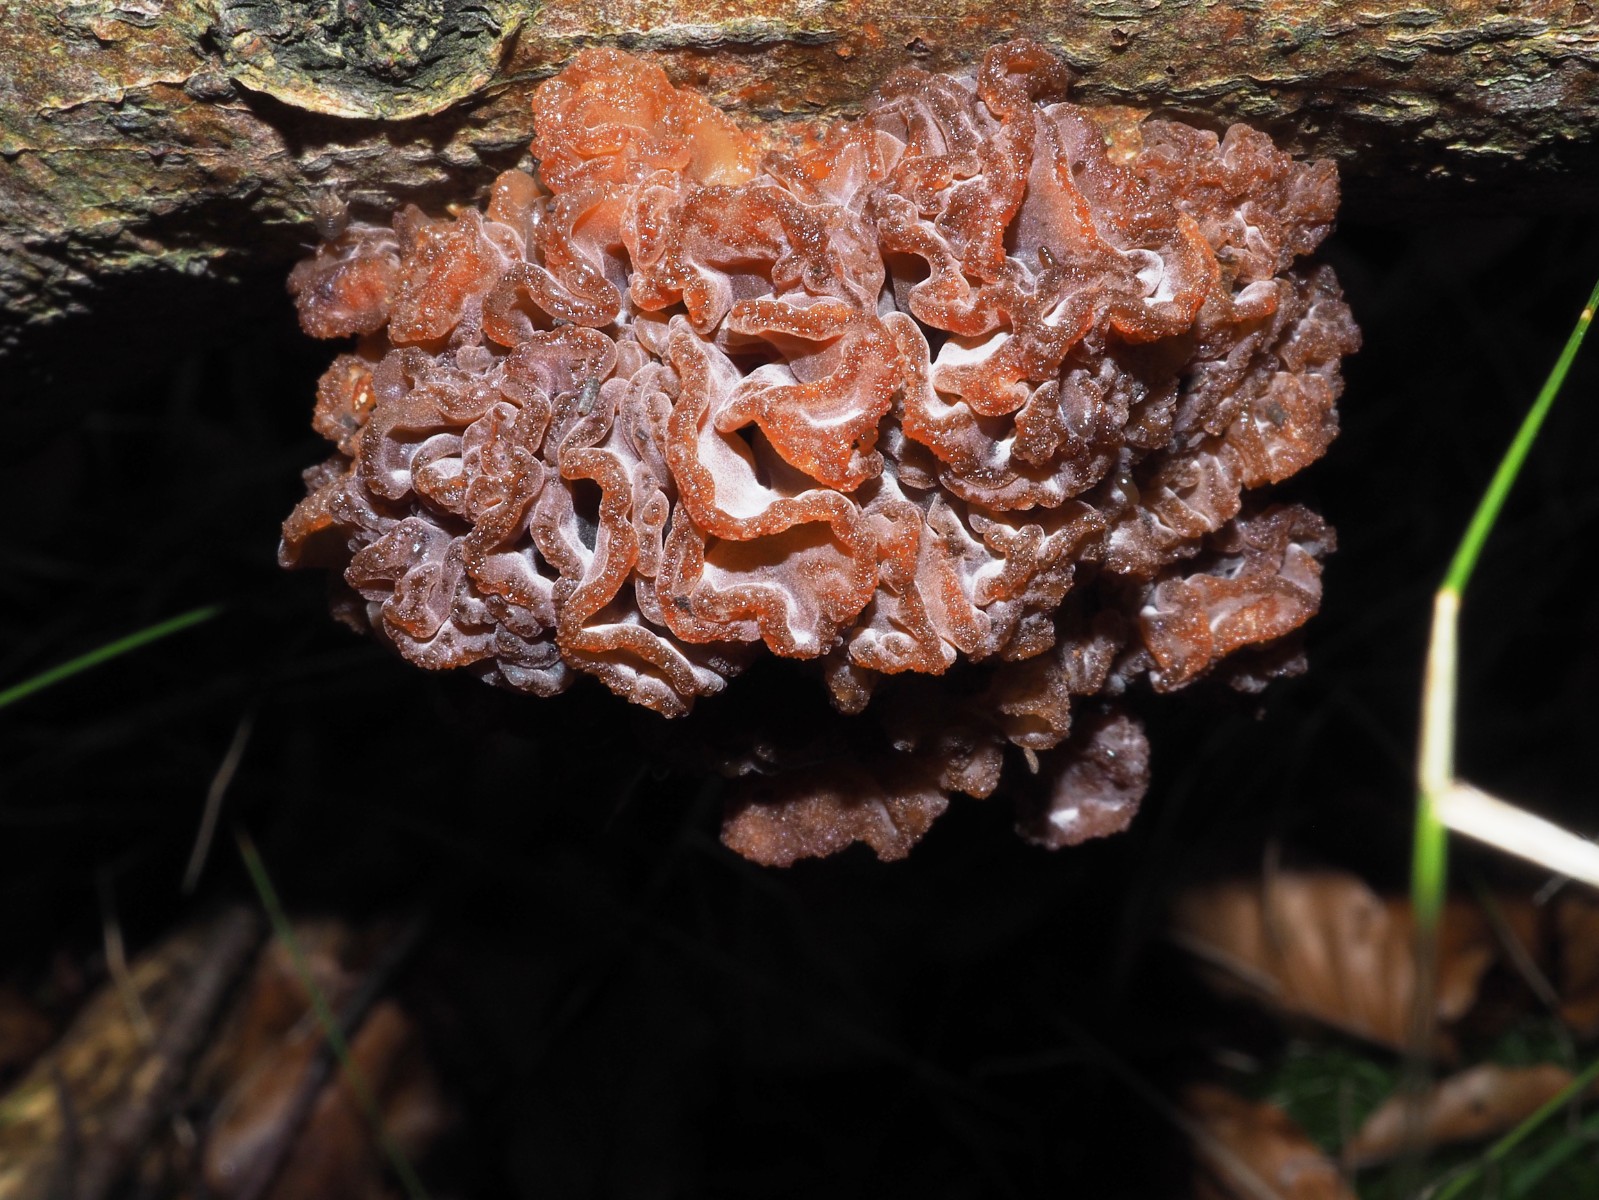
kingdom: Fungi
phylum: Basidiomycota
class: Tremellomycetes
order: Tremellales
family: Tremellaceae
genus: Phaeotremella
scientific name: Phaeotremella frondosa
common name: kæmpe-bævresvamp
